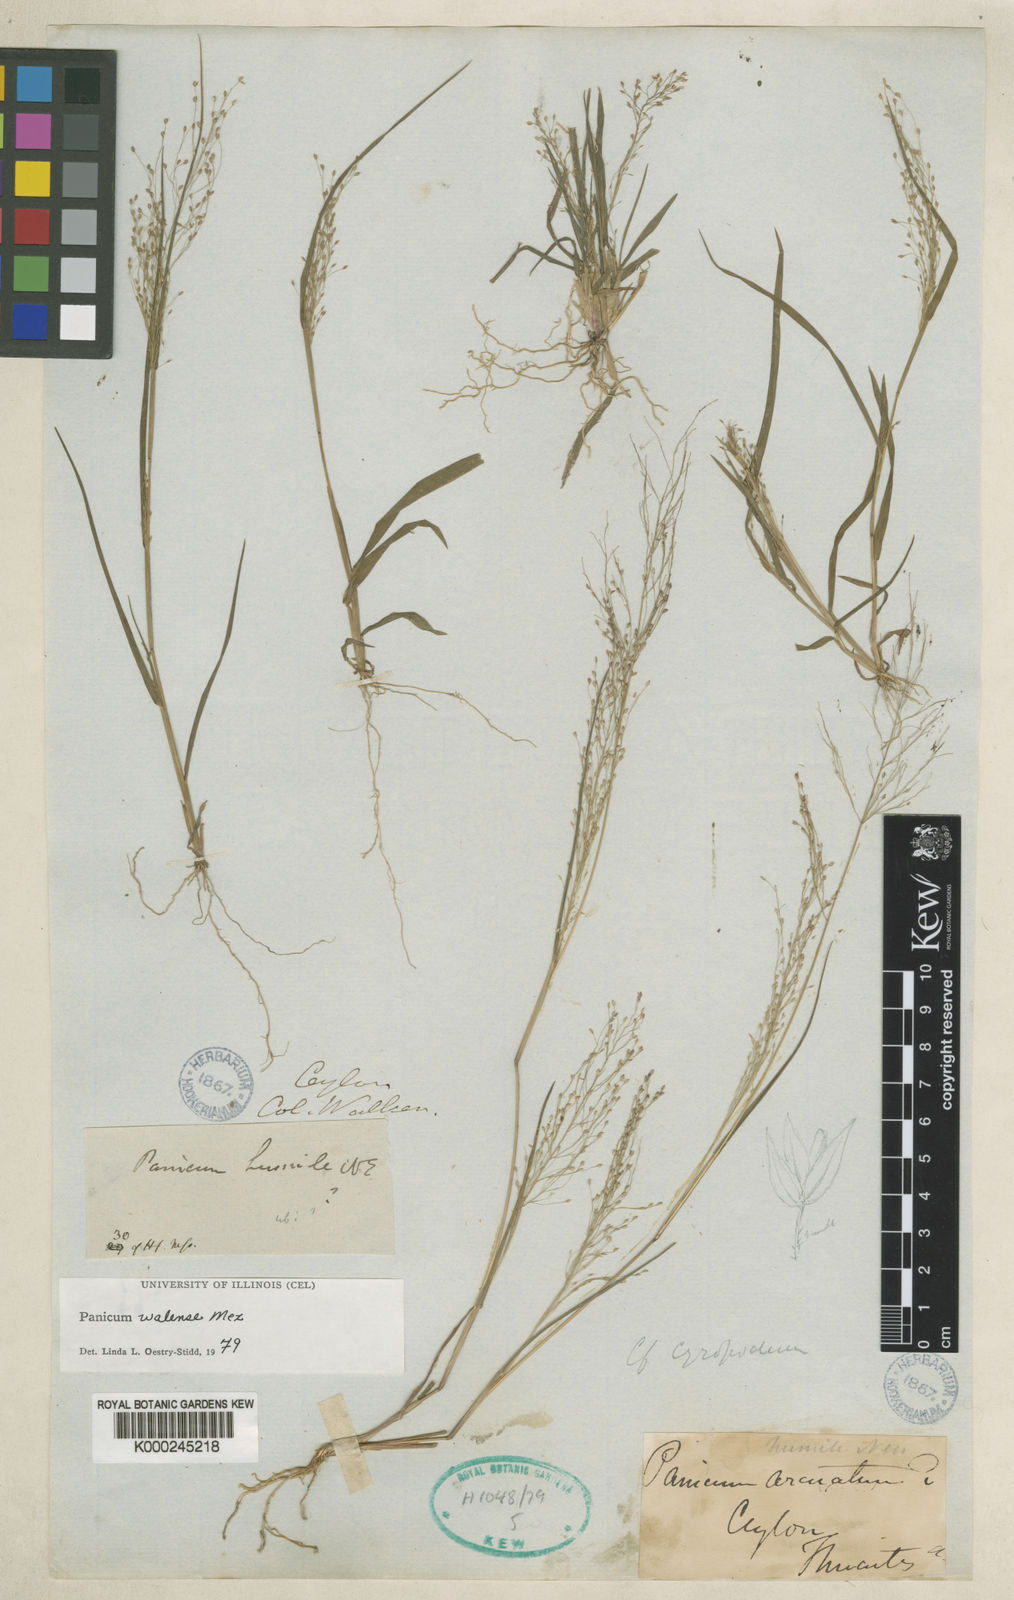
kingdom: Plantae
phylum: Tracheophyta
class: Liliopsida
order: Poales
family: Poaceae
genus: Panicum
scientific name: Panicum humile
